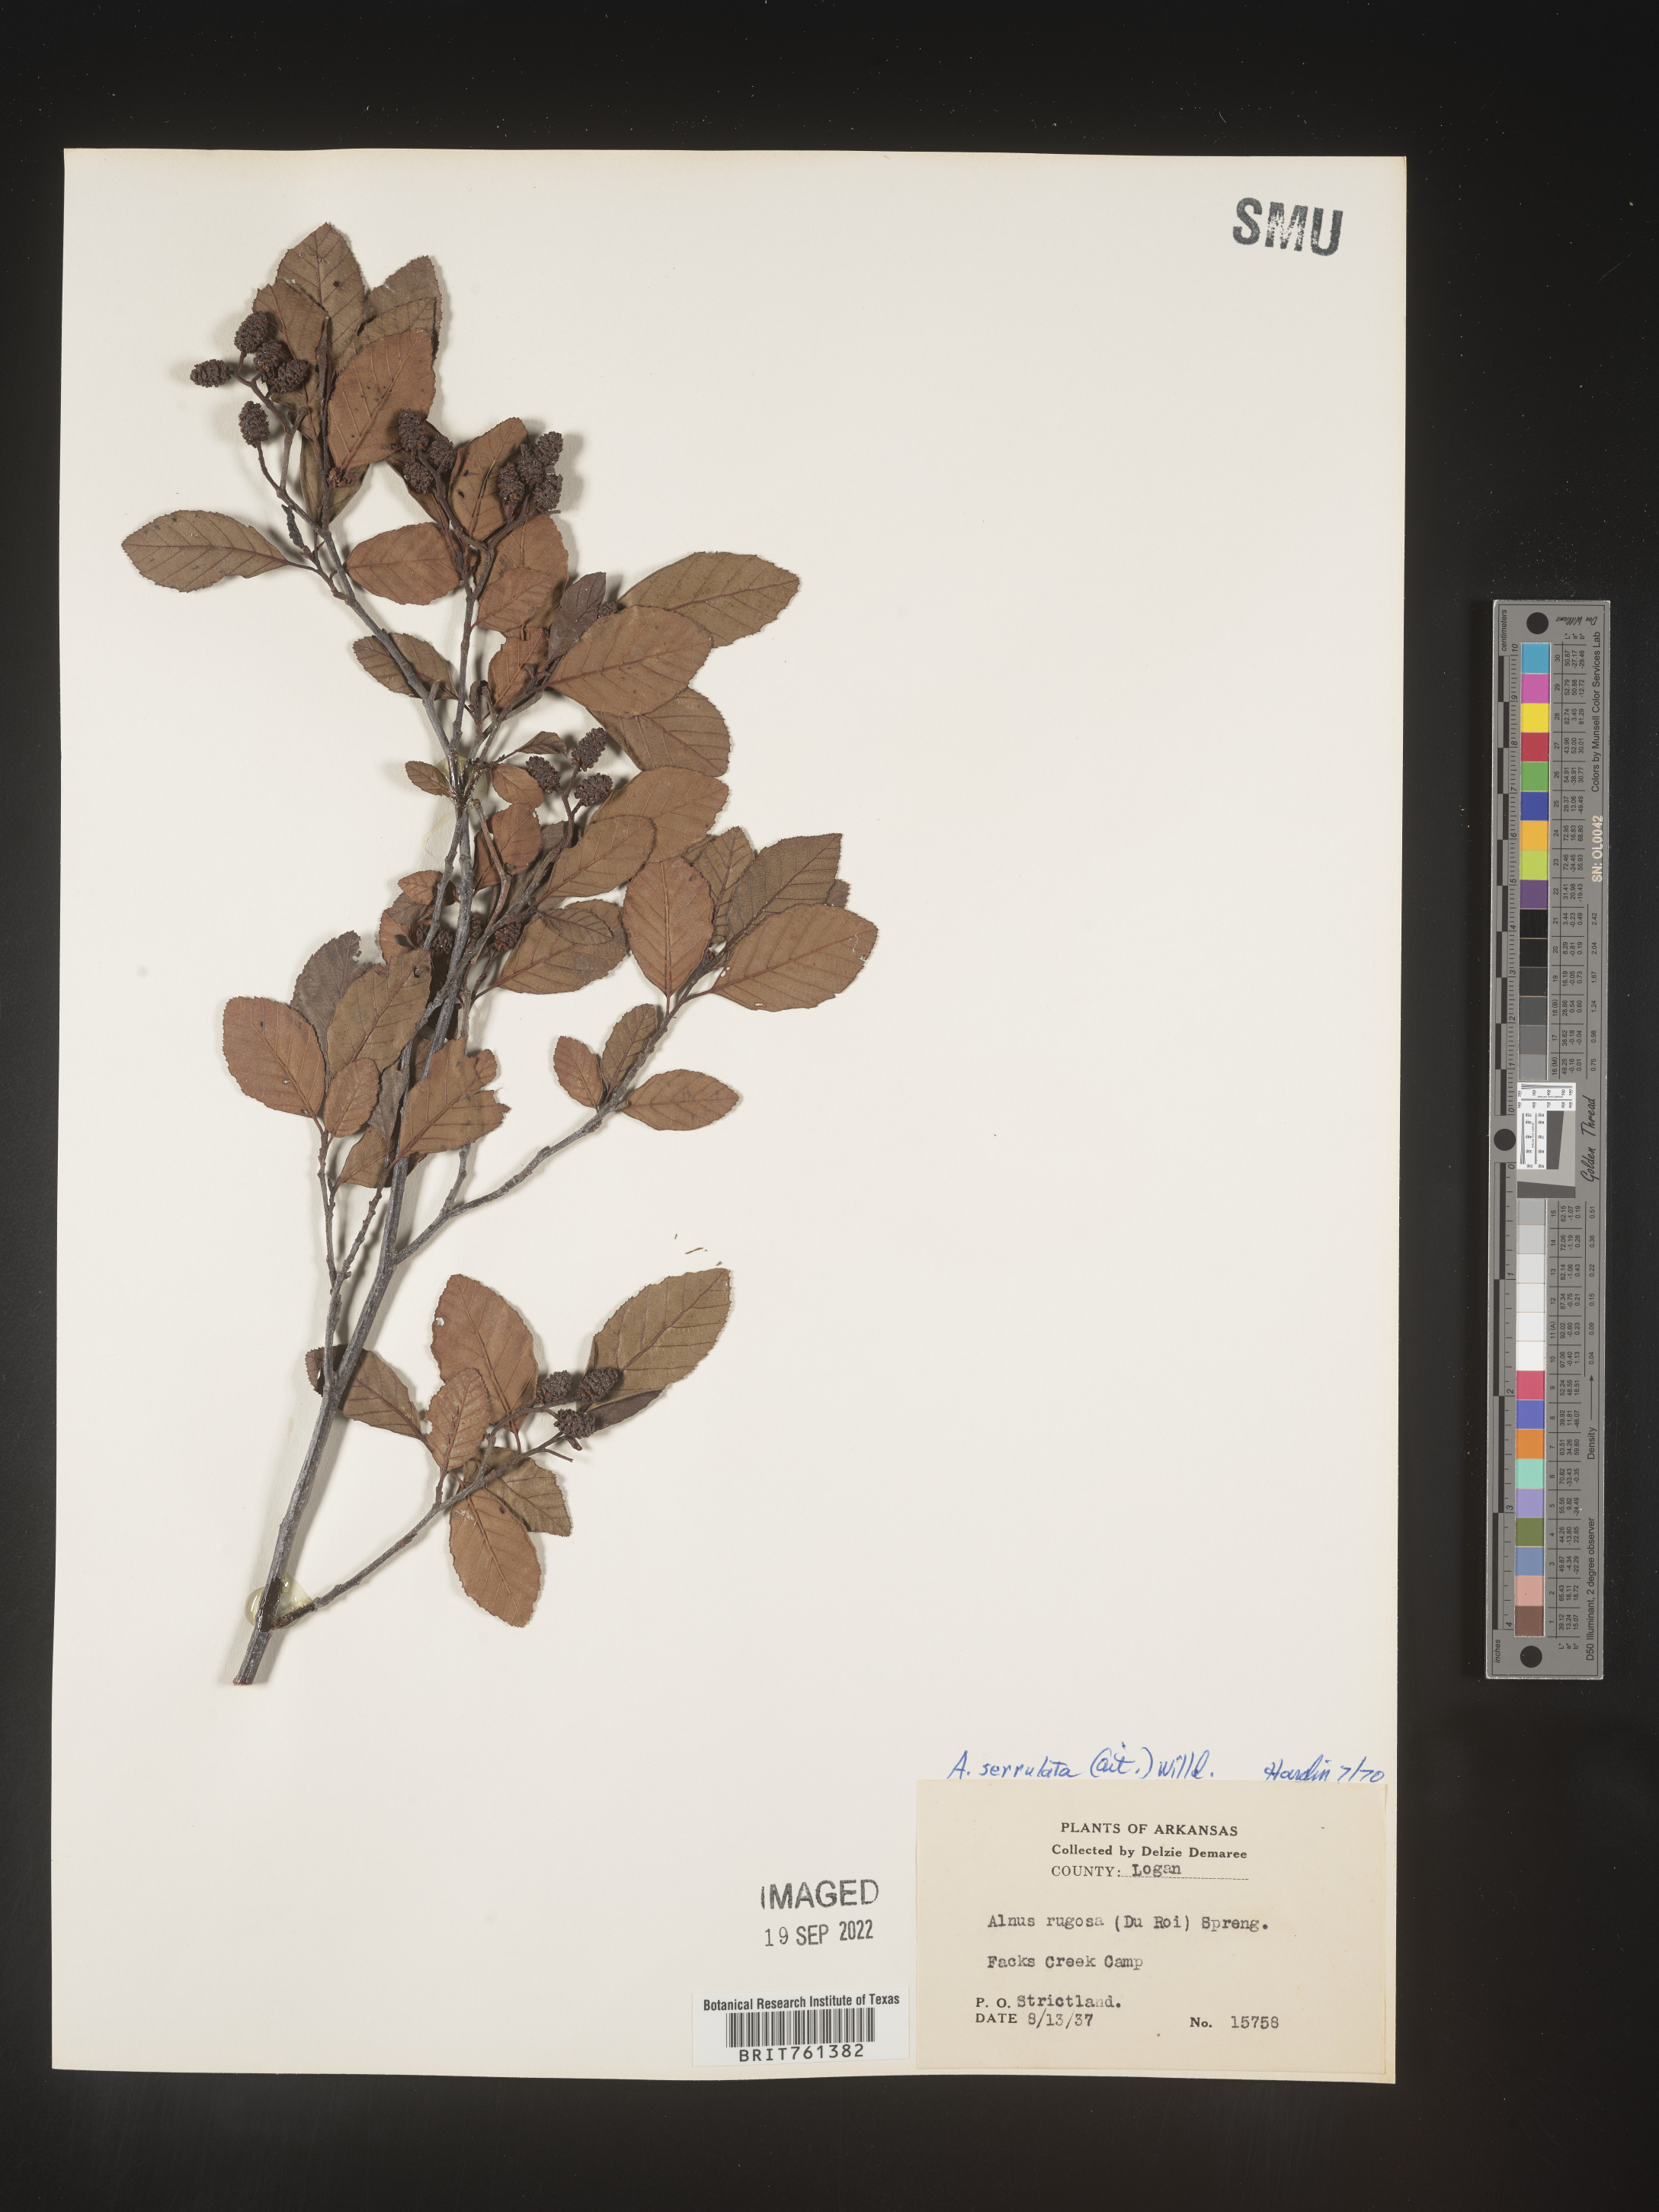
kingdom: Plantae
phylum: Tracheophyta
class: Magnoliopsida
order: Fagales
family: Betulaceae
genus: Alnus
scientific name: Alnus serrulata
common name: Hazel alder
